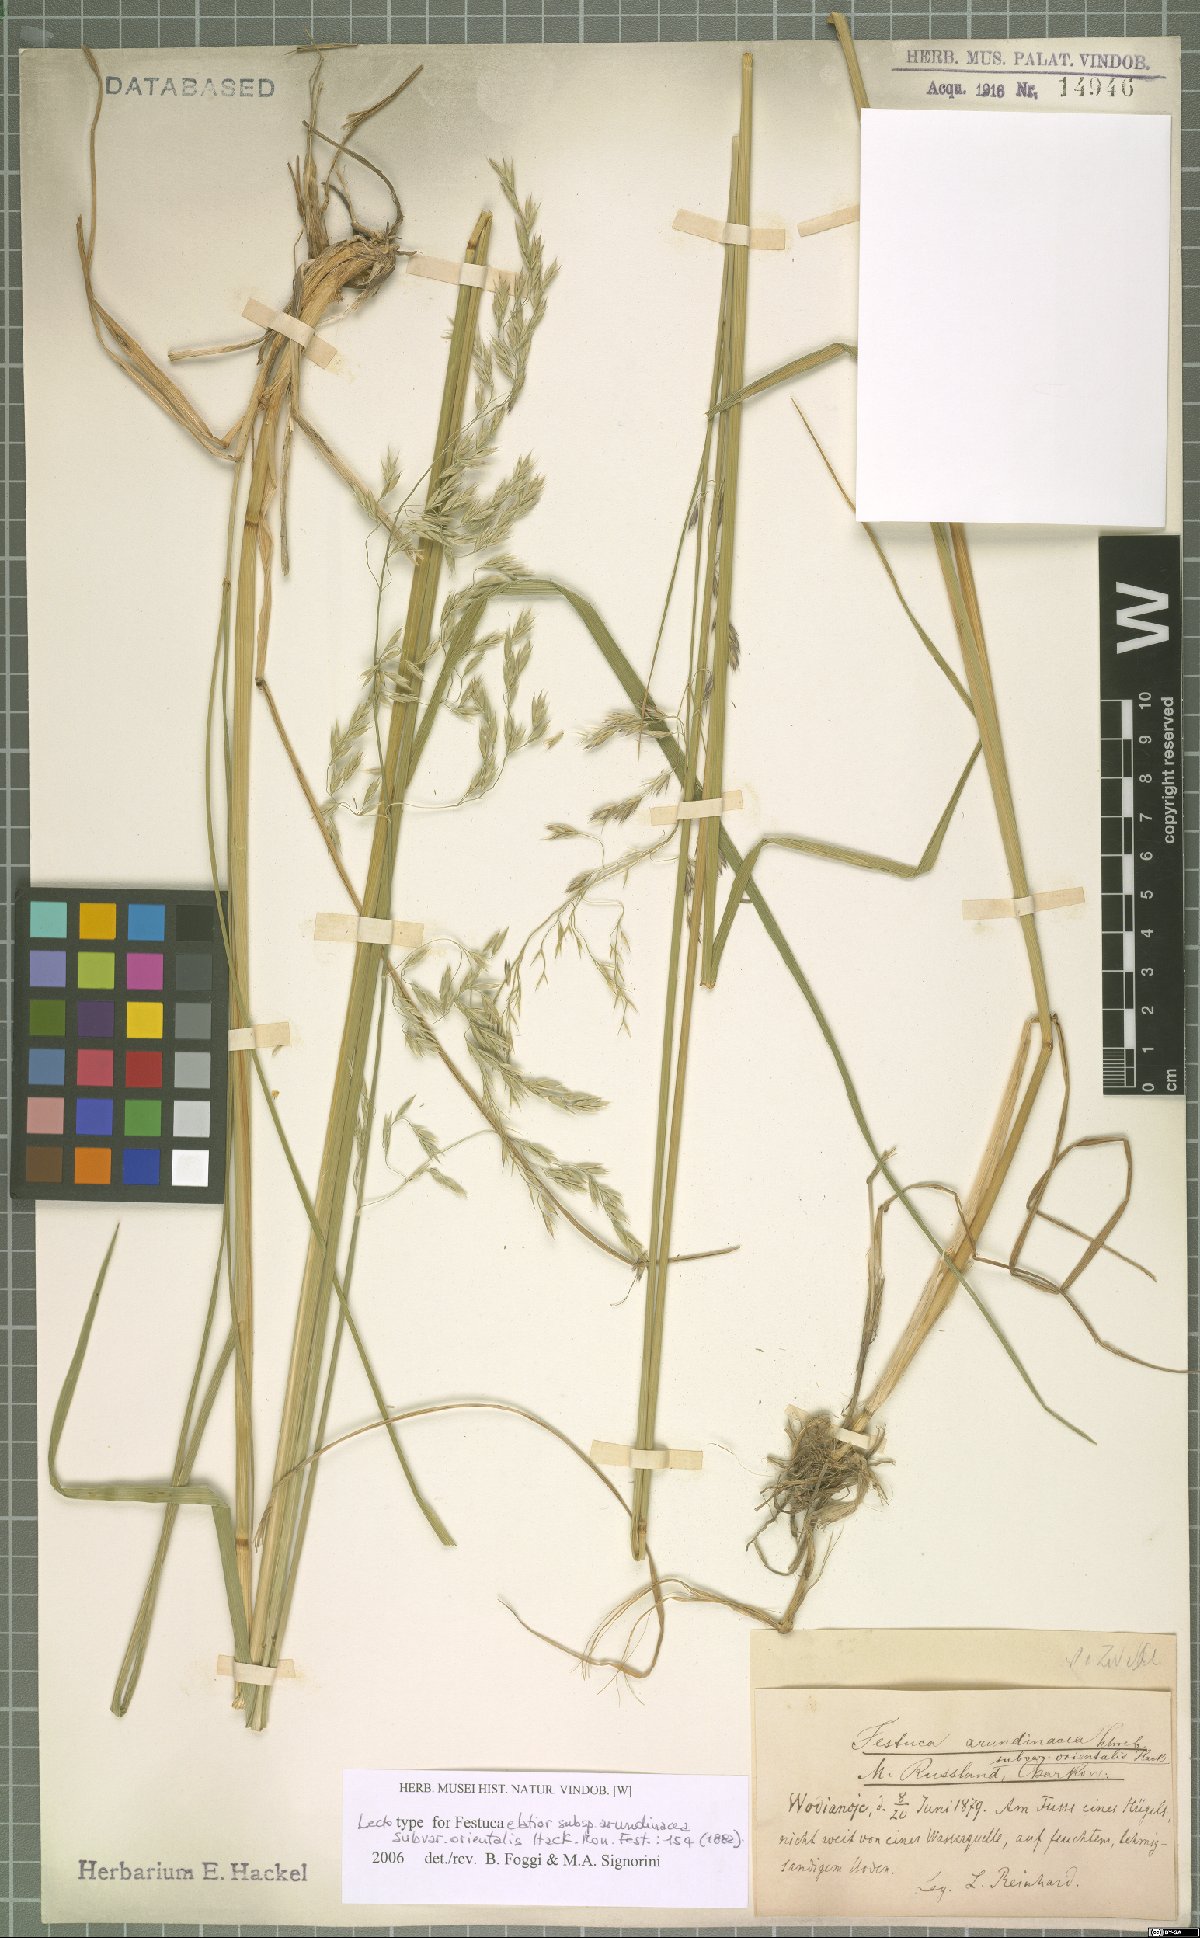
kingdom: Plantae
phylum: Tracheophyta
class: Liliopsida
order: Poales
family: Poaceae
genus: Lolium
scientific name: Lolium arundinaceum
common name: Reed fescue
